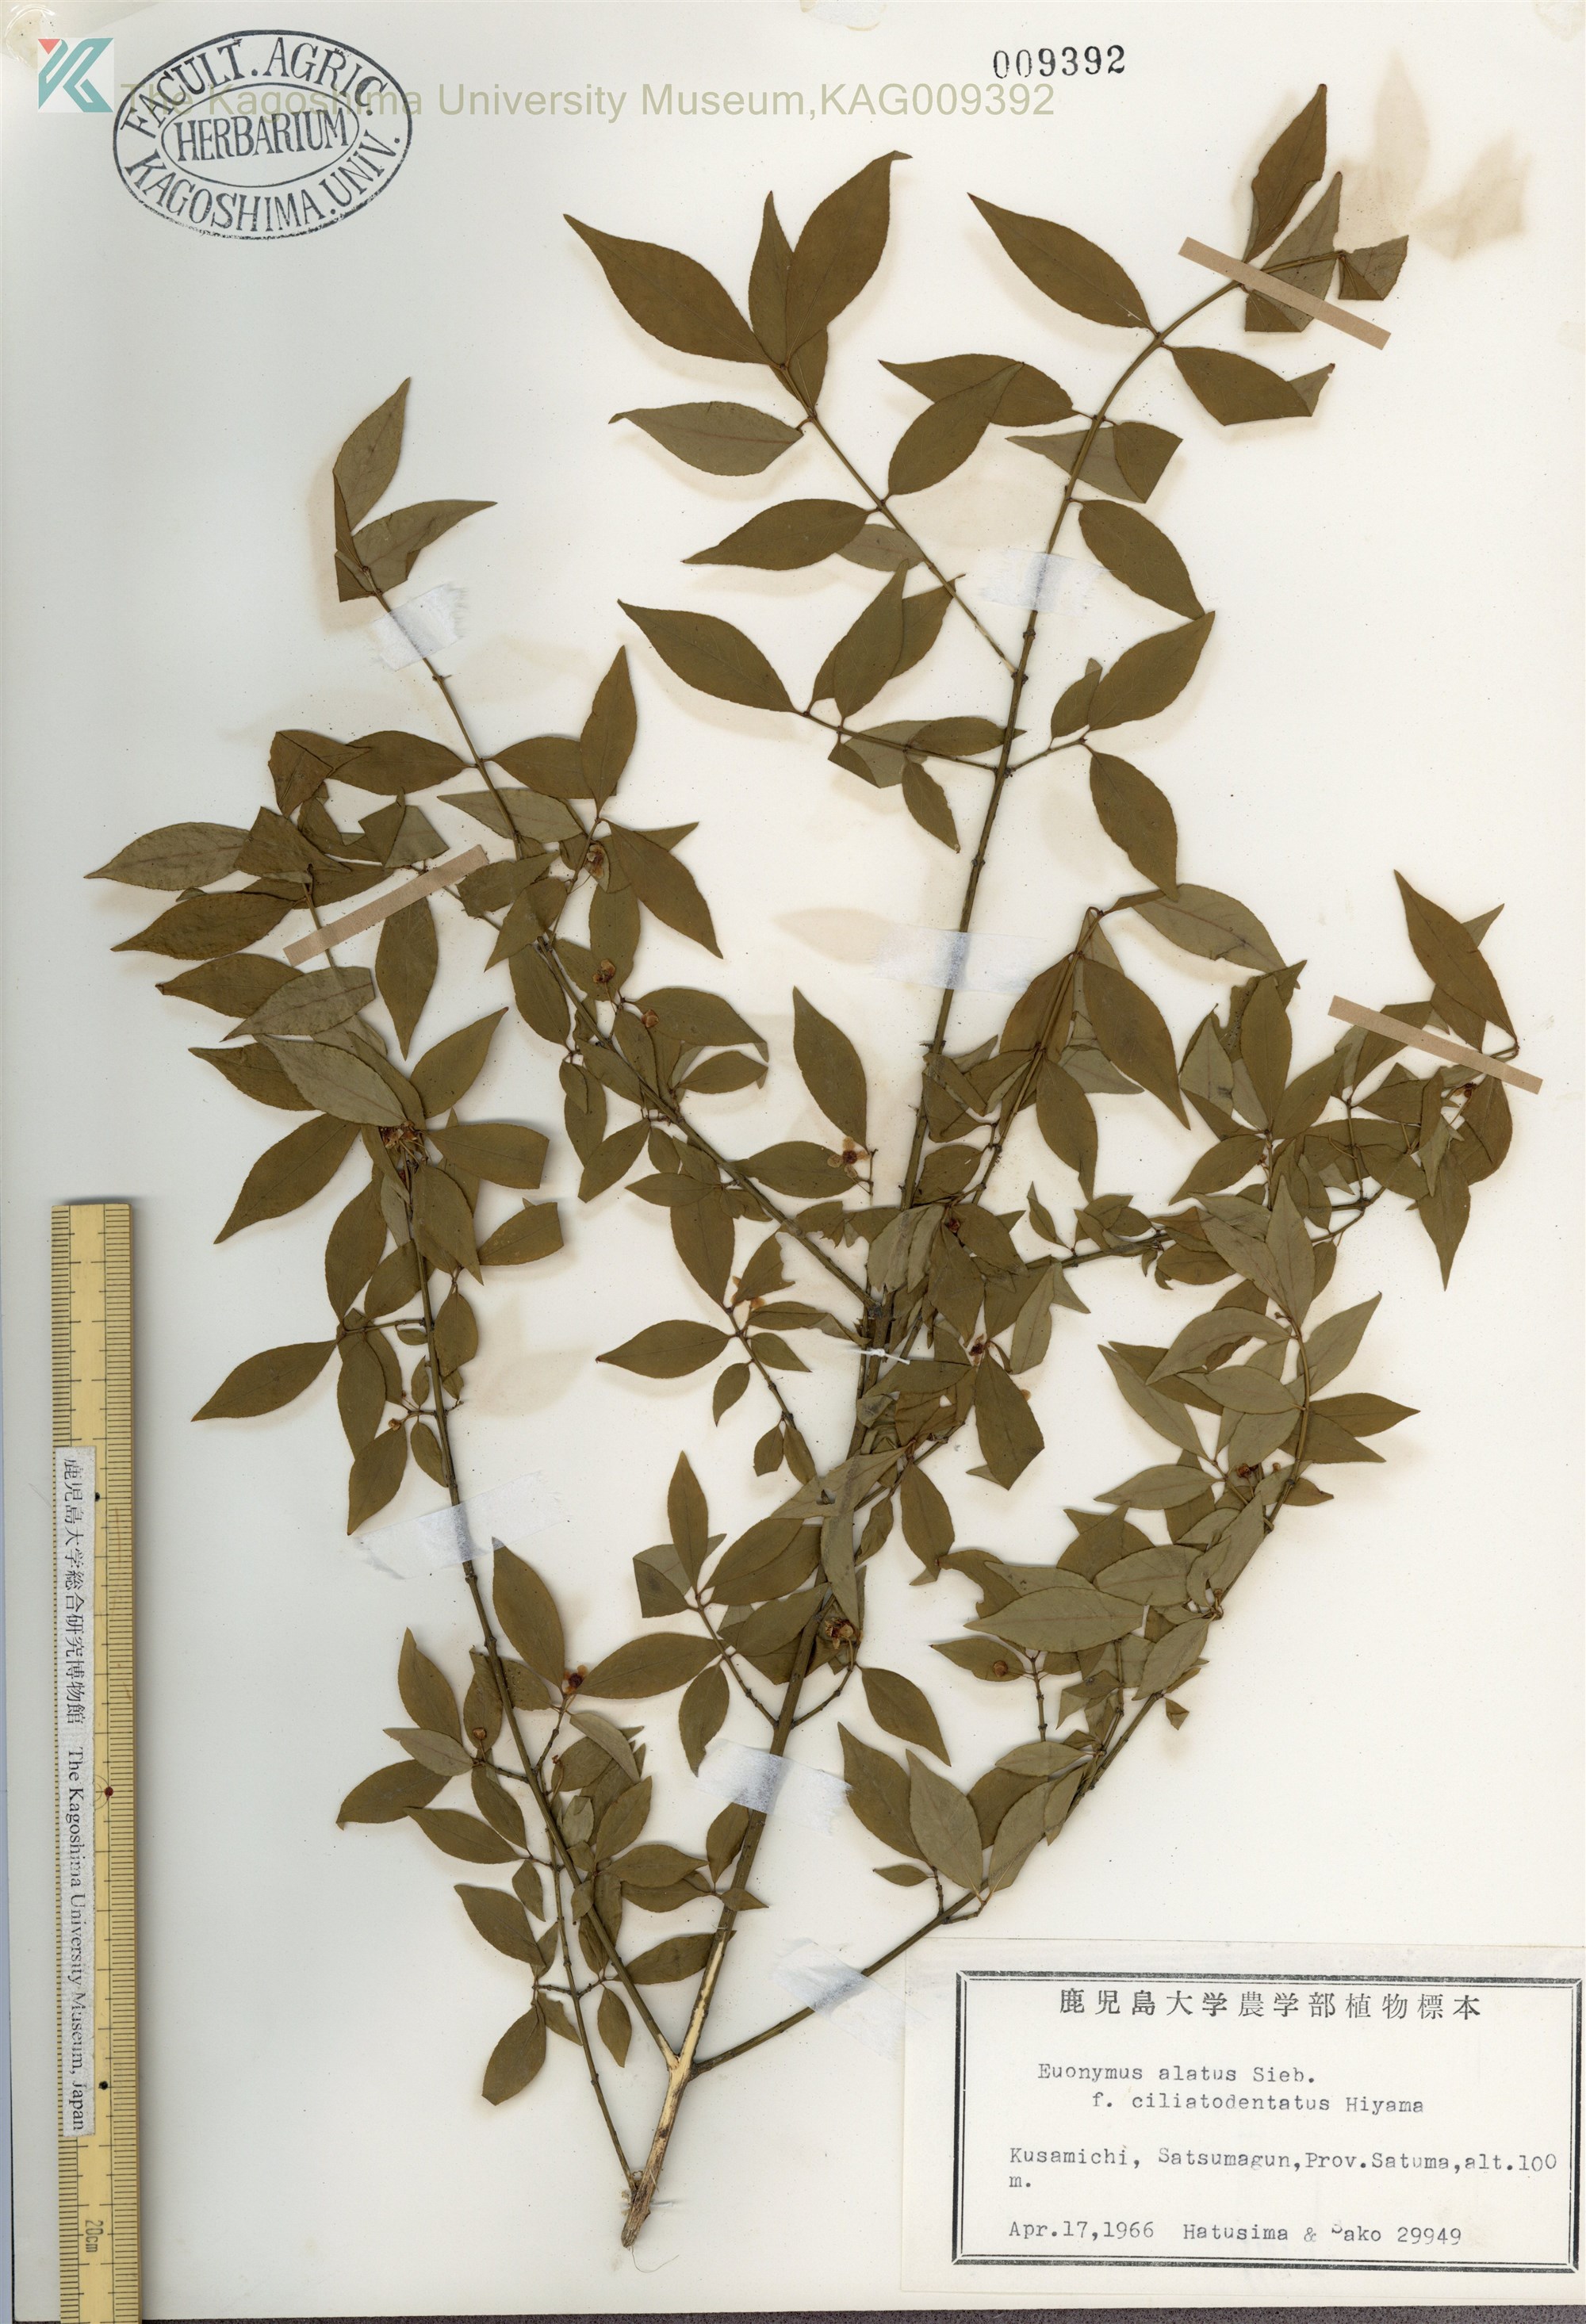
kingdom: Plantae
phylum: Tracheophyta
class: Magnoliopsida
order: Celastrales
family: Celastraceae
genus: Euonymus
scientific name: Euonymus alatus
